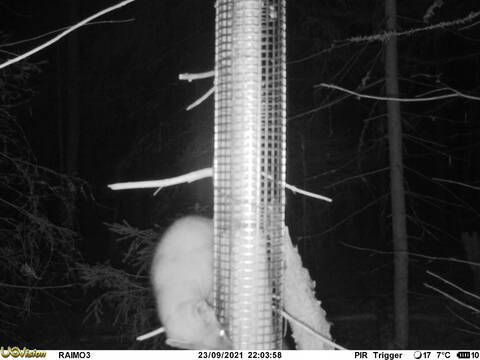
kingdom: Animalia
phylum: Chordata
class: Mammalia
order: Carnivora
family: Mustelidae
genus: Martes
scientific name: Martes martes
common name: European pine marten
